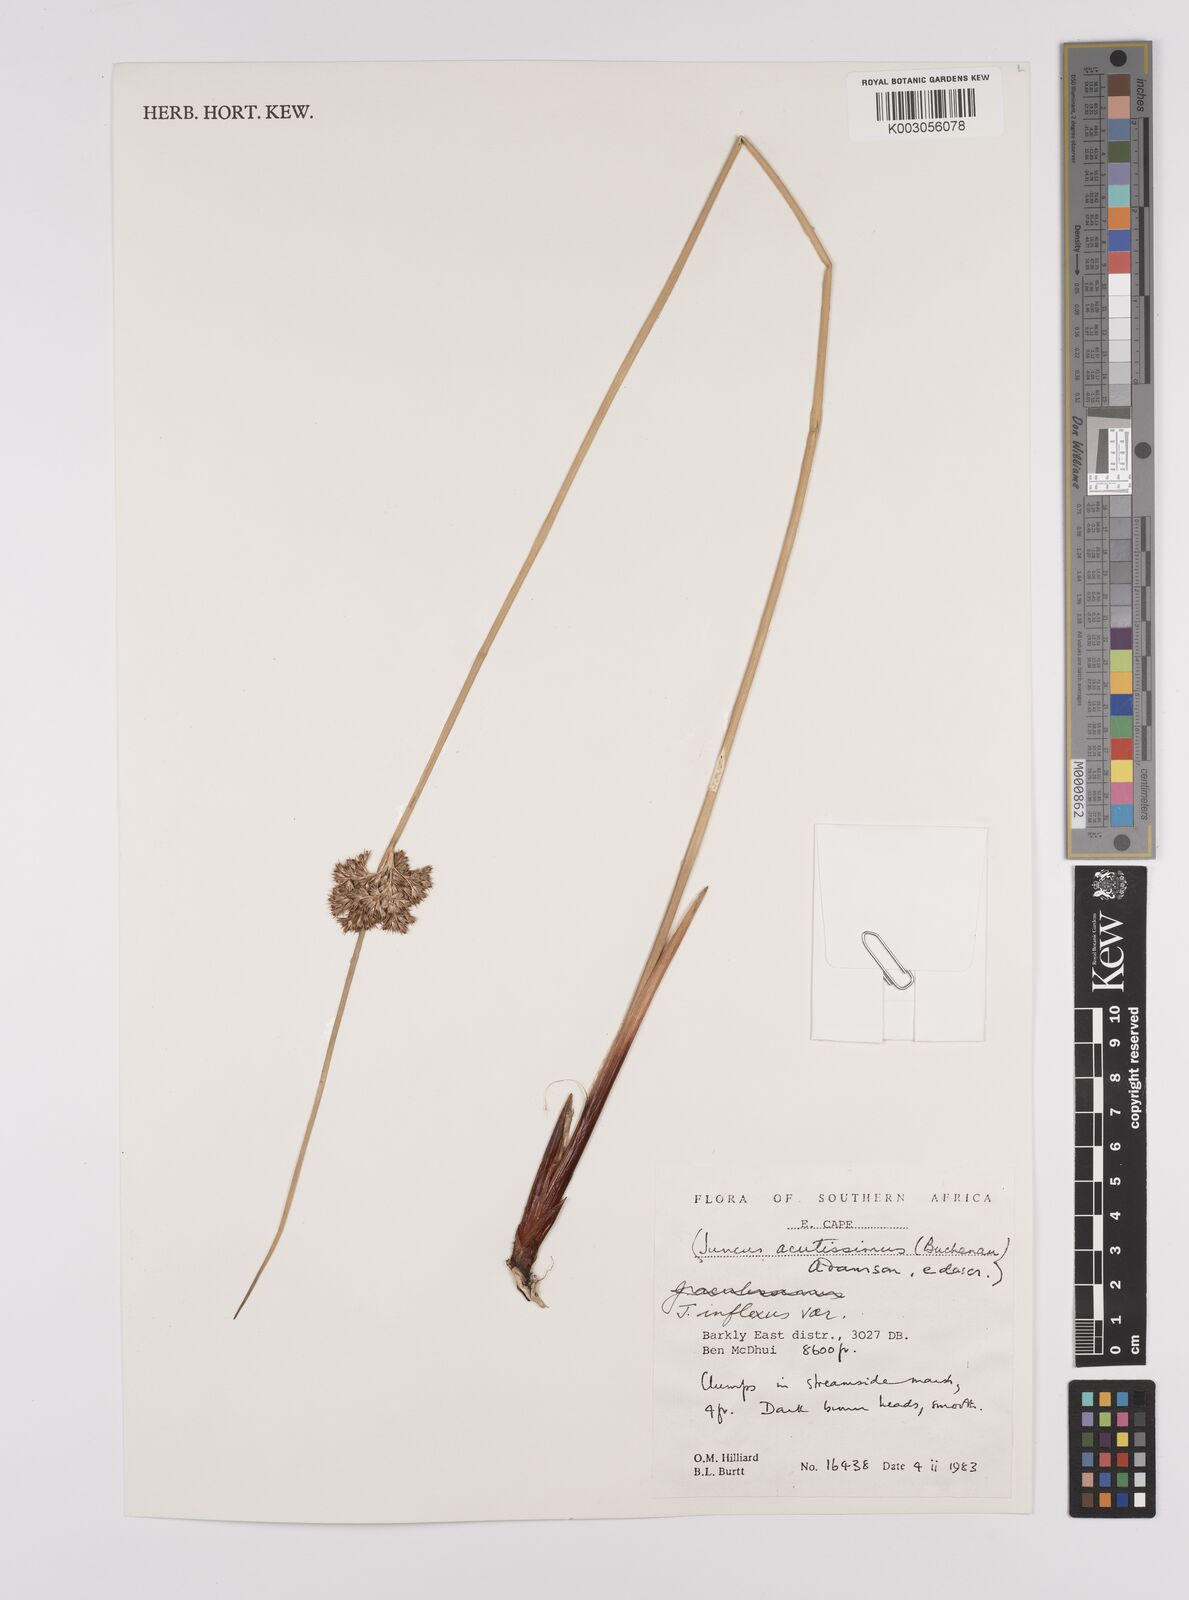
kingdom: Plantae
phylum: Tracheophyta
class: Liliopsida
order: Poales
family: Juncaceae
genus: Juncus
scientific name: Juncus inflexus
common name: Hard rush
